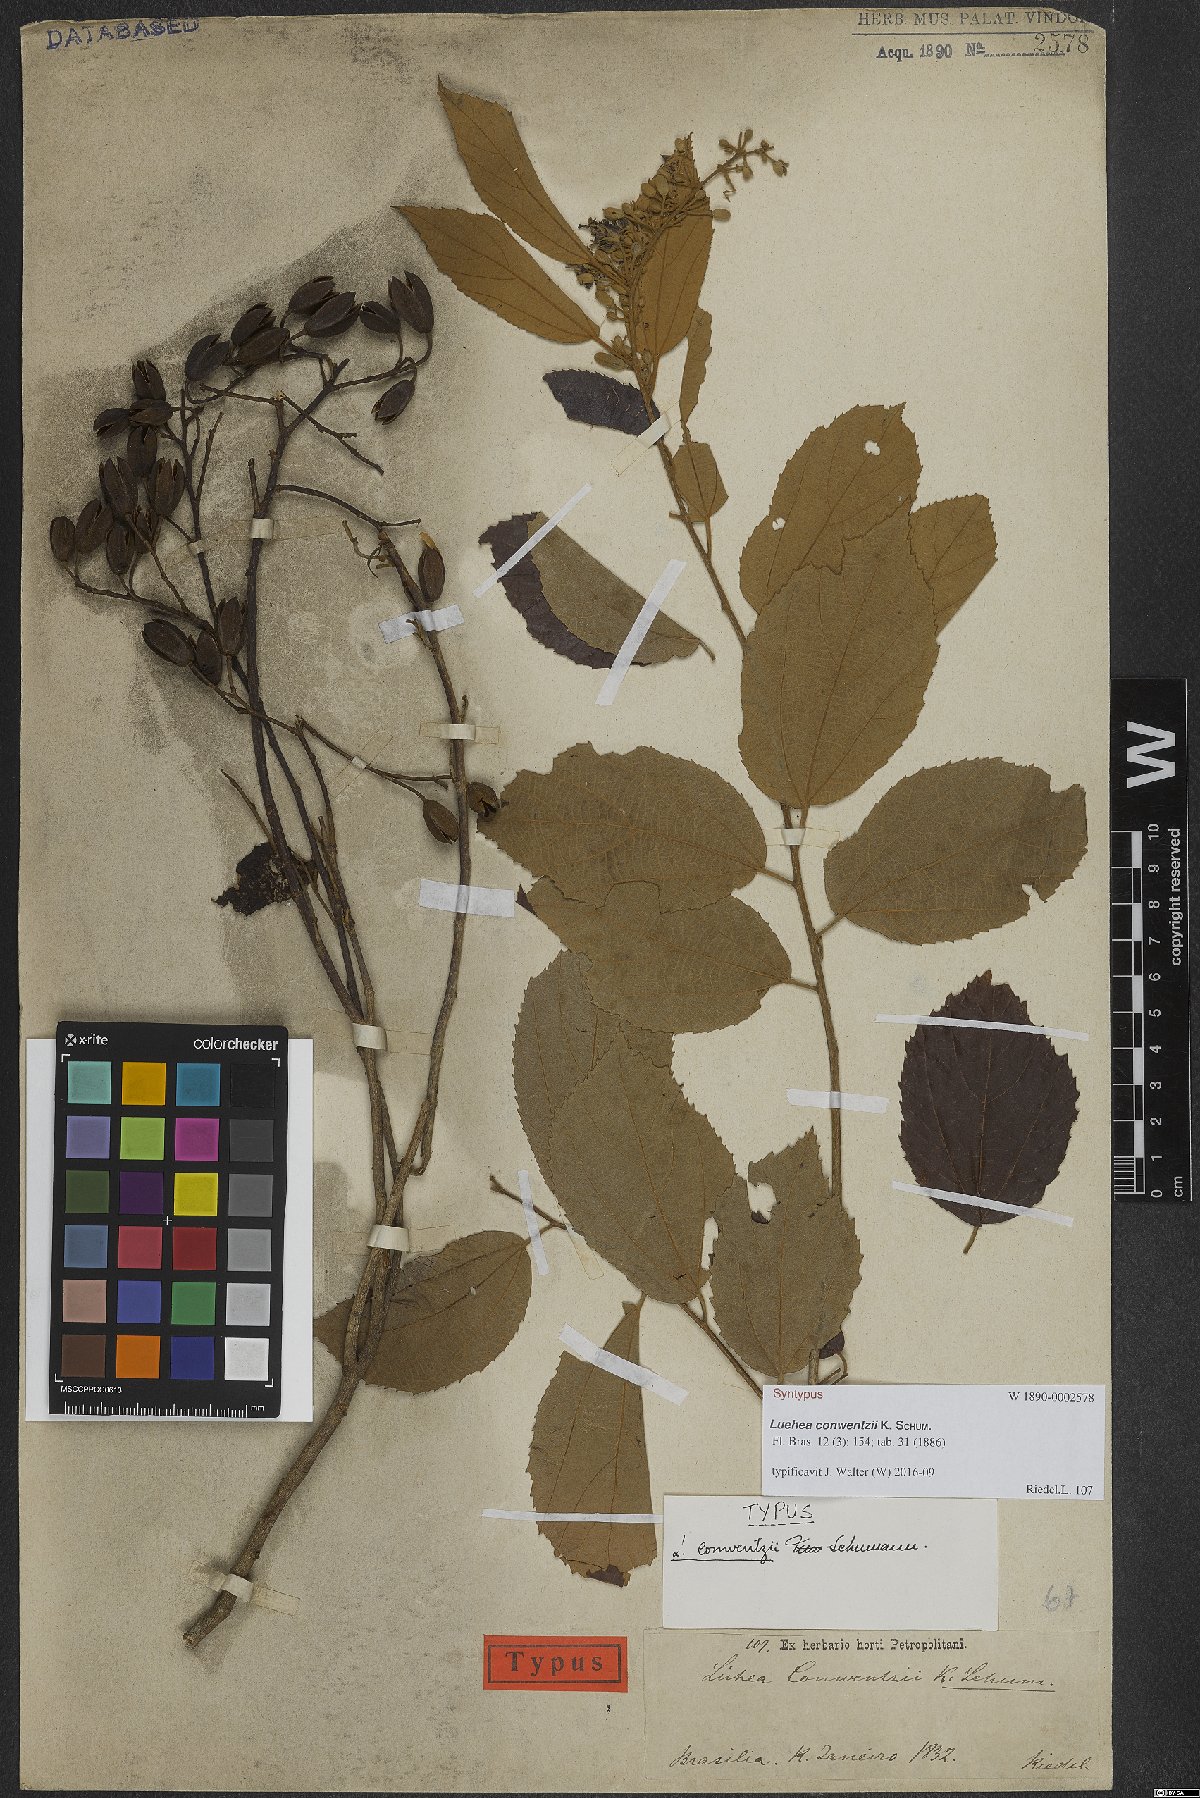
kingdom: Plantae
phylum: Tracheophyta
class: Magnoliopsida
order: Malvales
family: Malvaceae
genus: Luehea
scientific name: Luehea conwentzii
